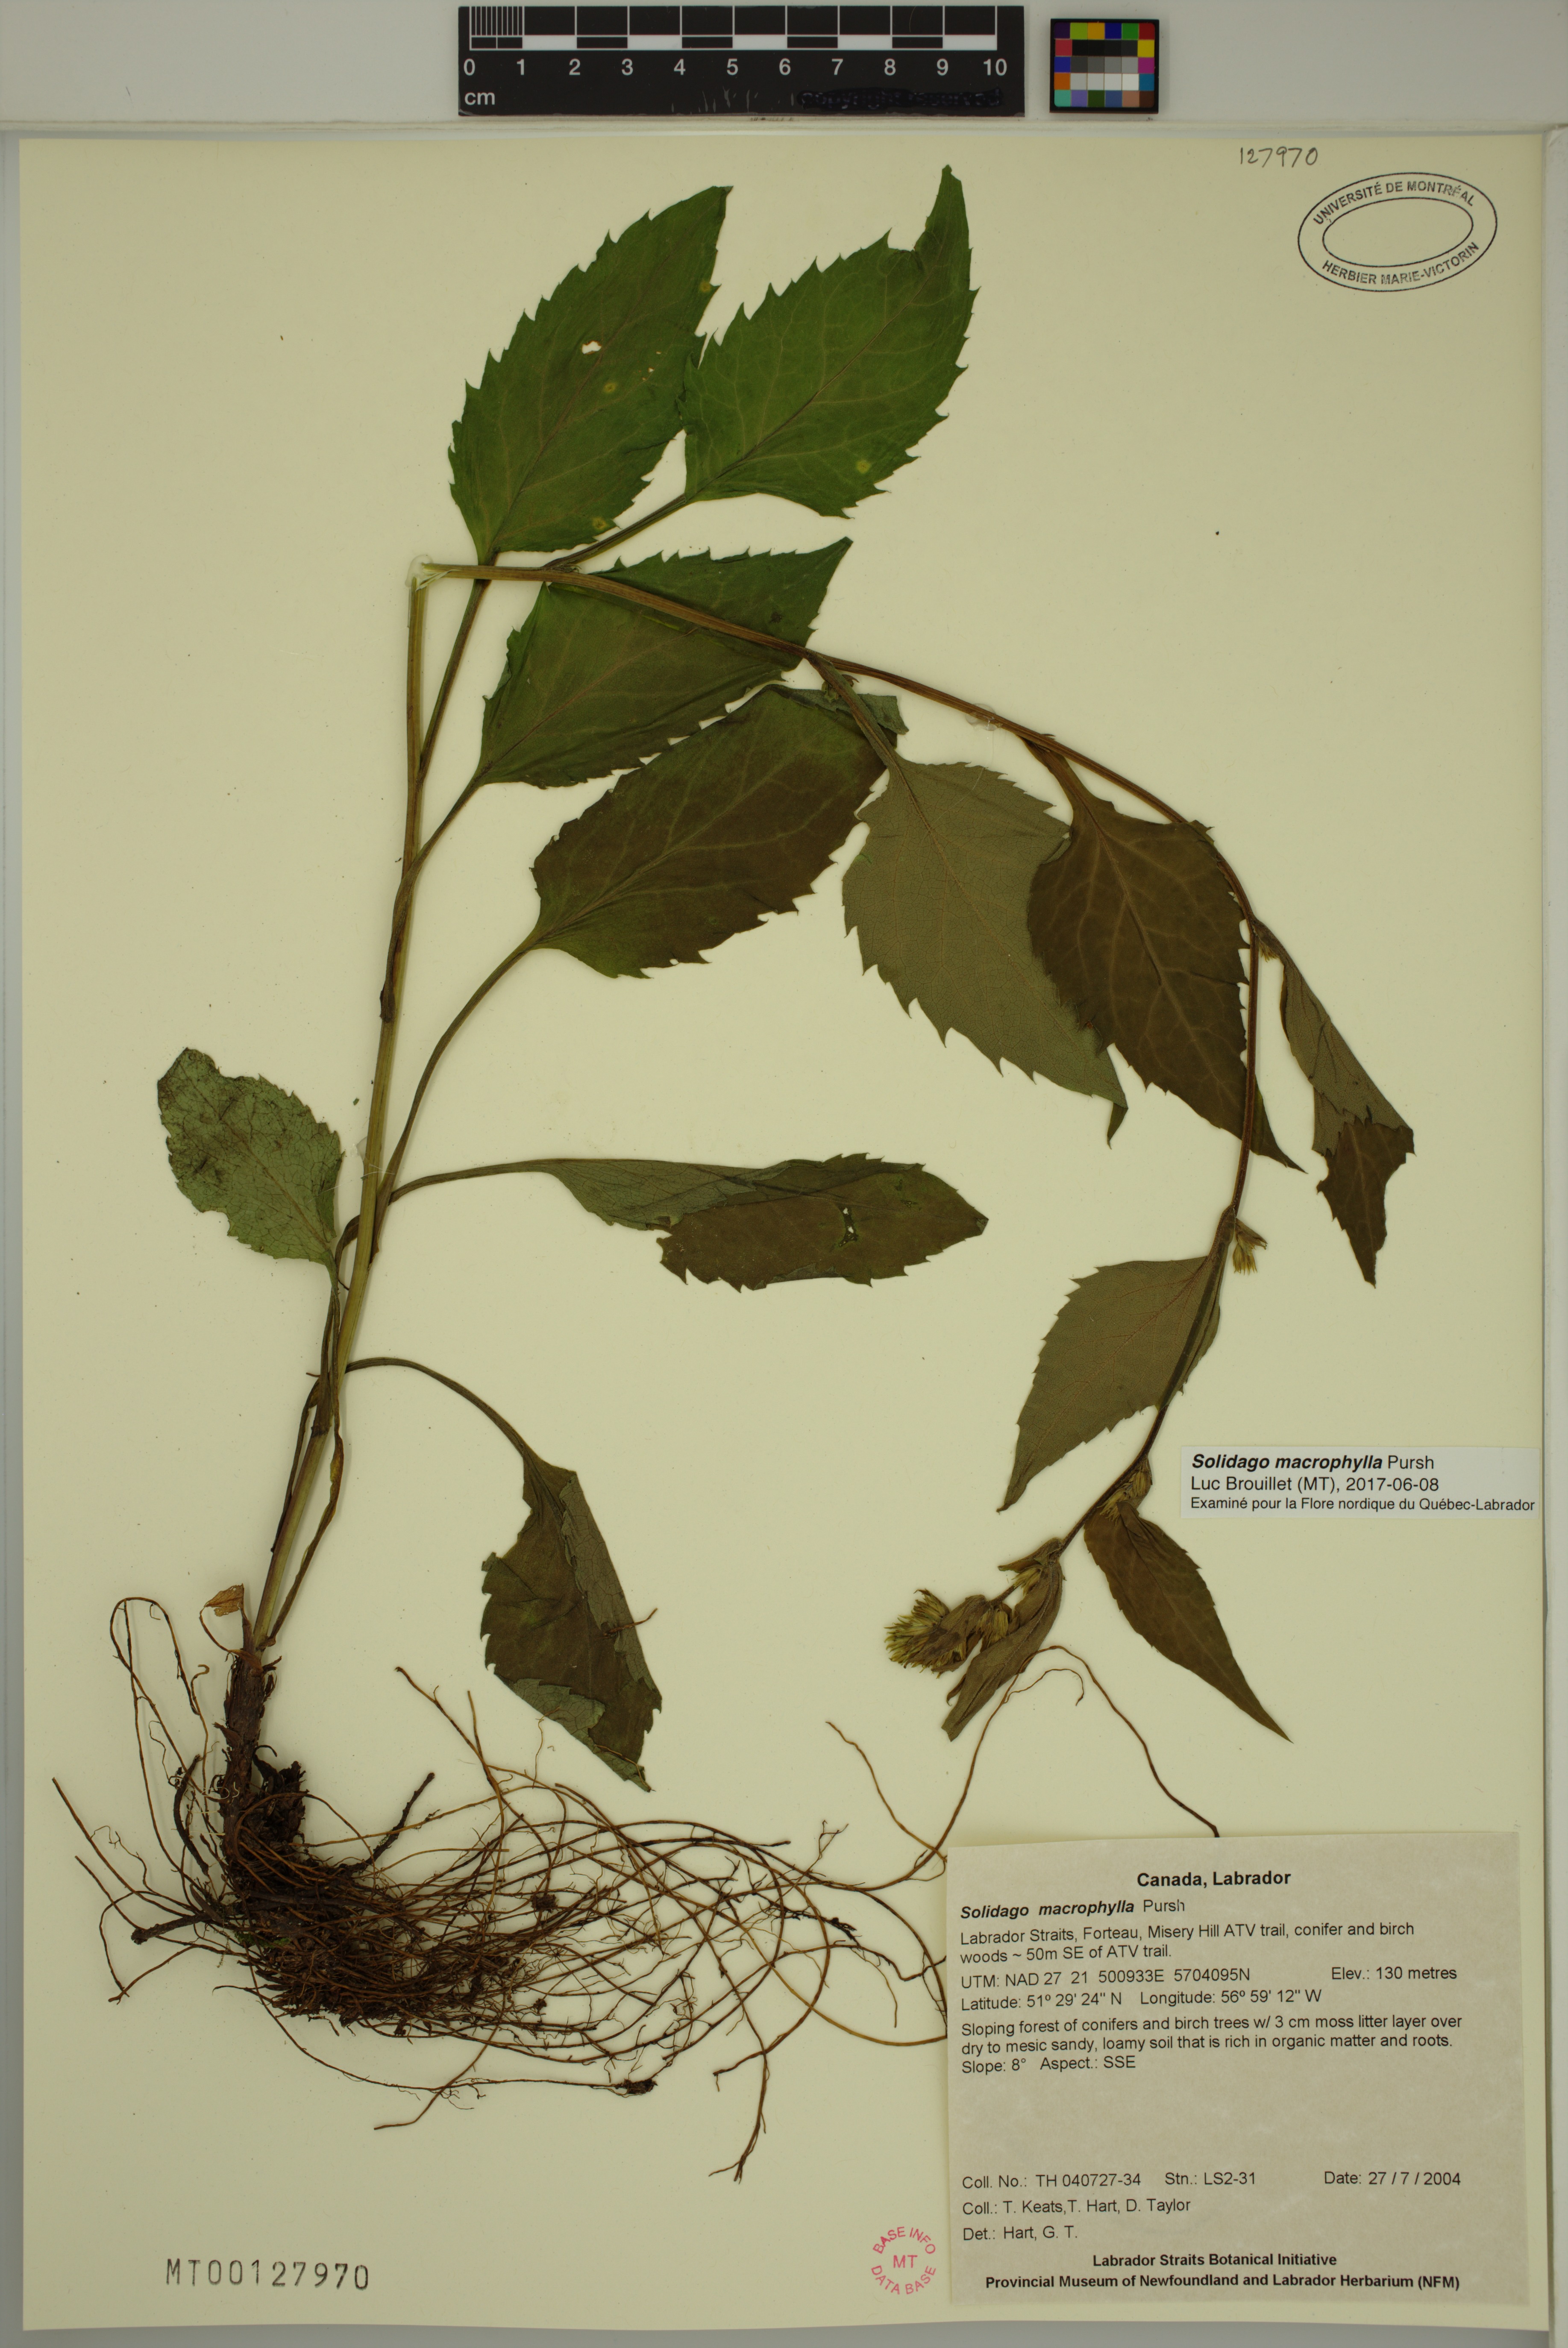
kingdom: Plantae
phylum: Tracheophyta
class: Magnoliopsida
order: Asterales
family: Asteraceae
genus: Solidago
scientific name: Solidago macrophylla
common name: Large-leaved goldenrod
